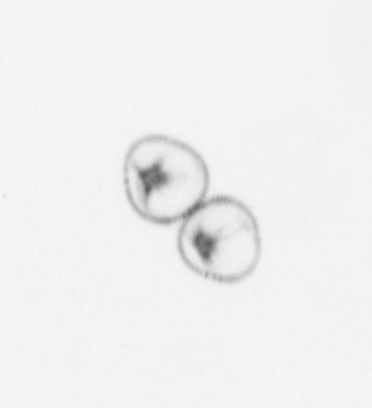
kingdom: Chromista
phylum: Myzozoa
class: Dinophyceae
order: Noctilucales
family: Noctilucaceae
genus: Noctiluca
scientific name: Noctiluca scintillans
